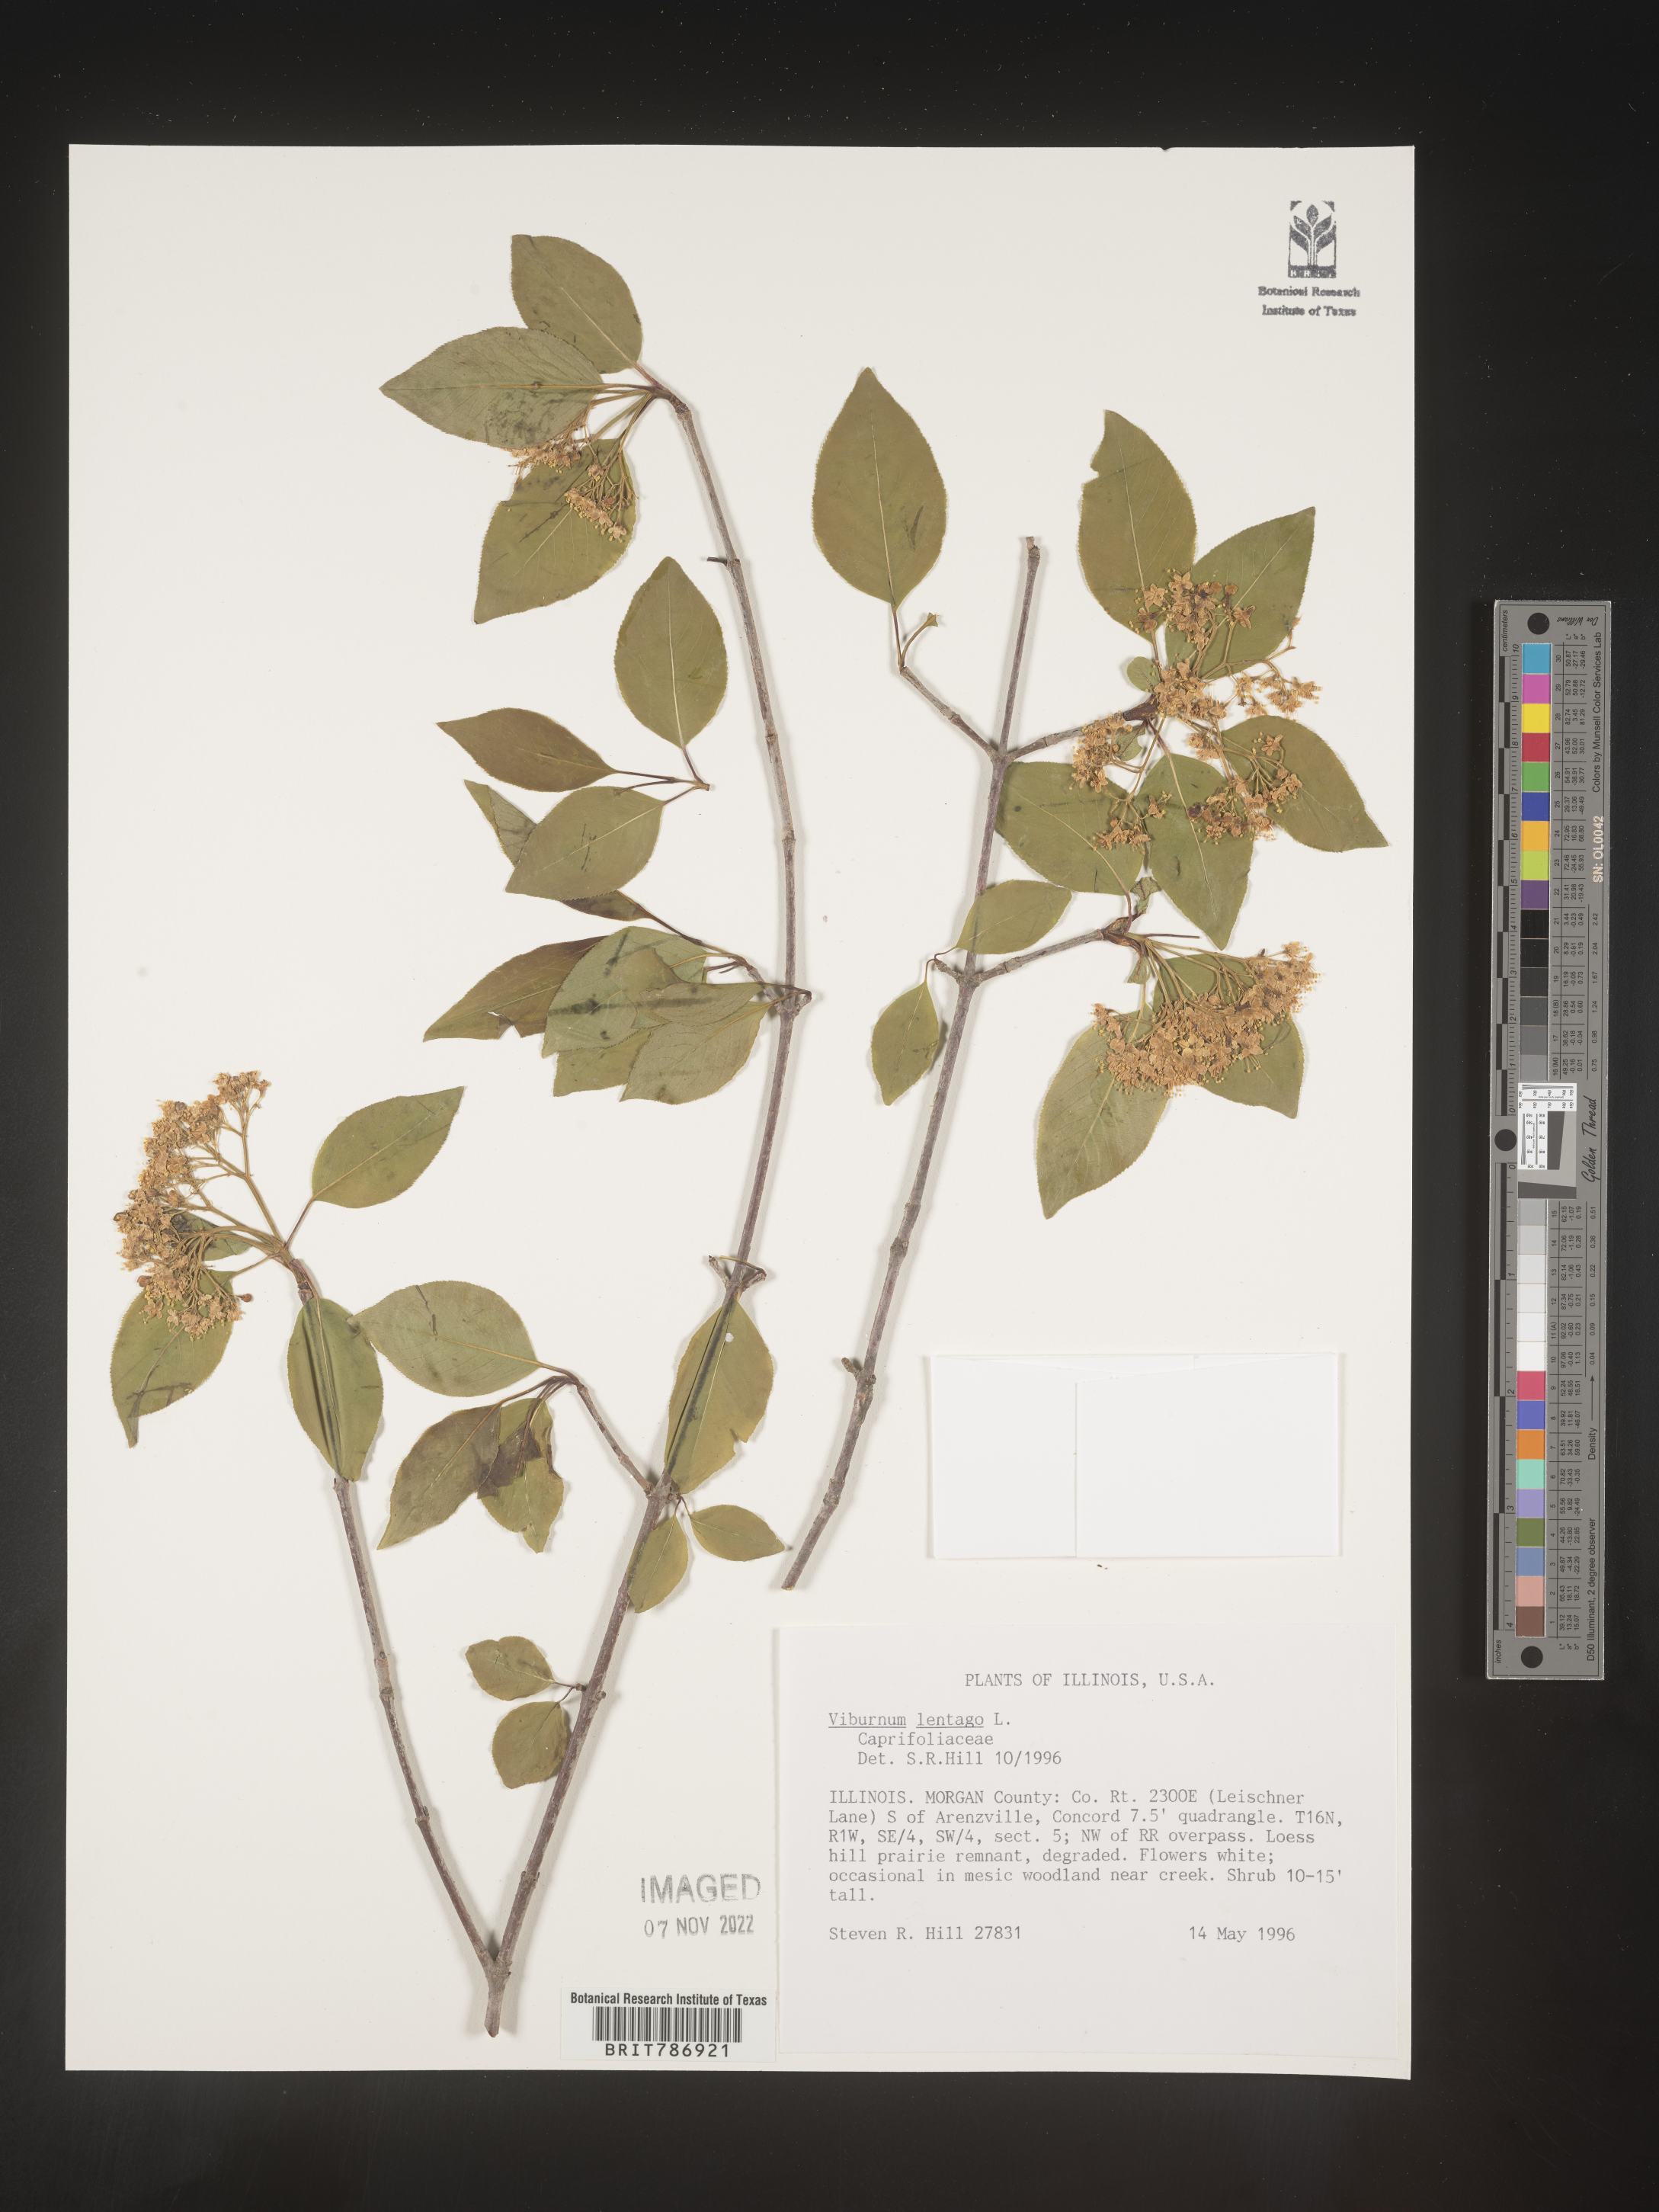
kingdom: Plantae
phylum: Tracheophyta
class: Magnoliopsida
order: Dipsacales
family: Viburnaceae
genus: Viburnum
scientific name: Viburnum lentago
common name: Black haw
